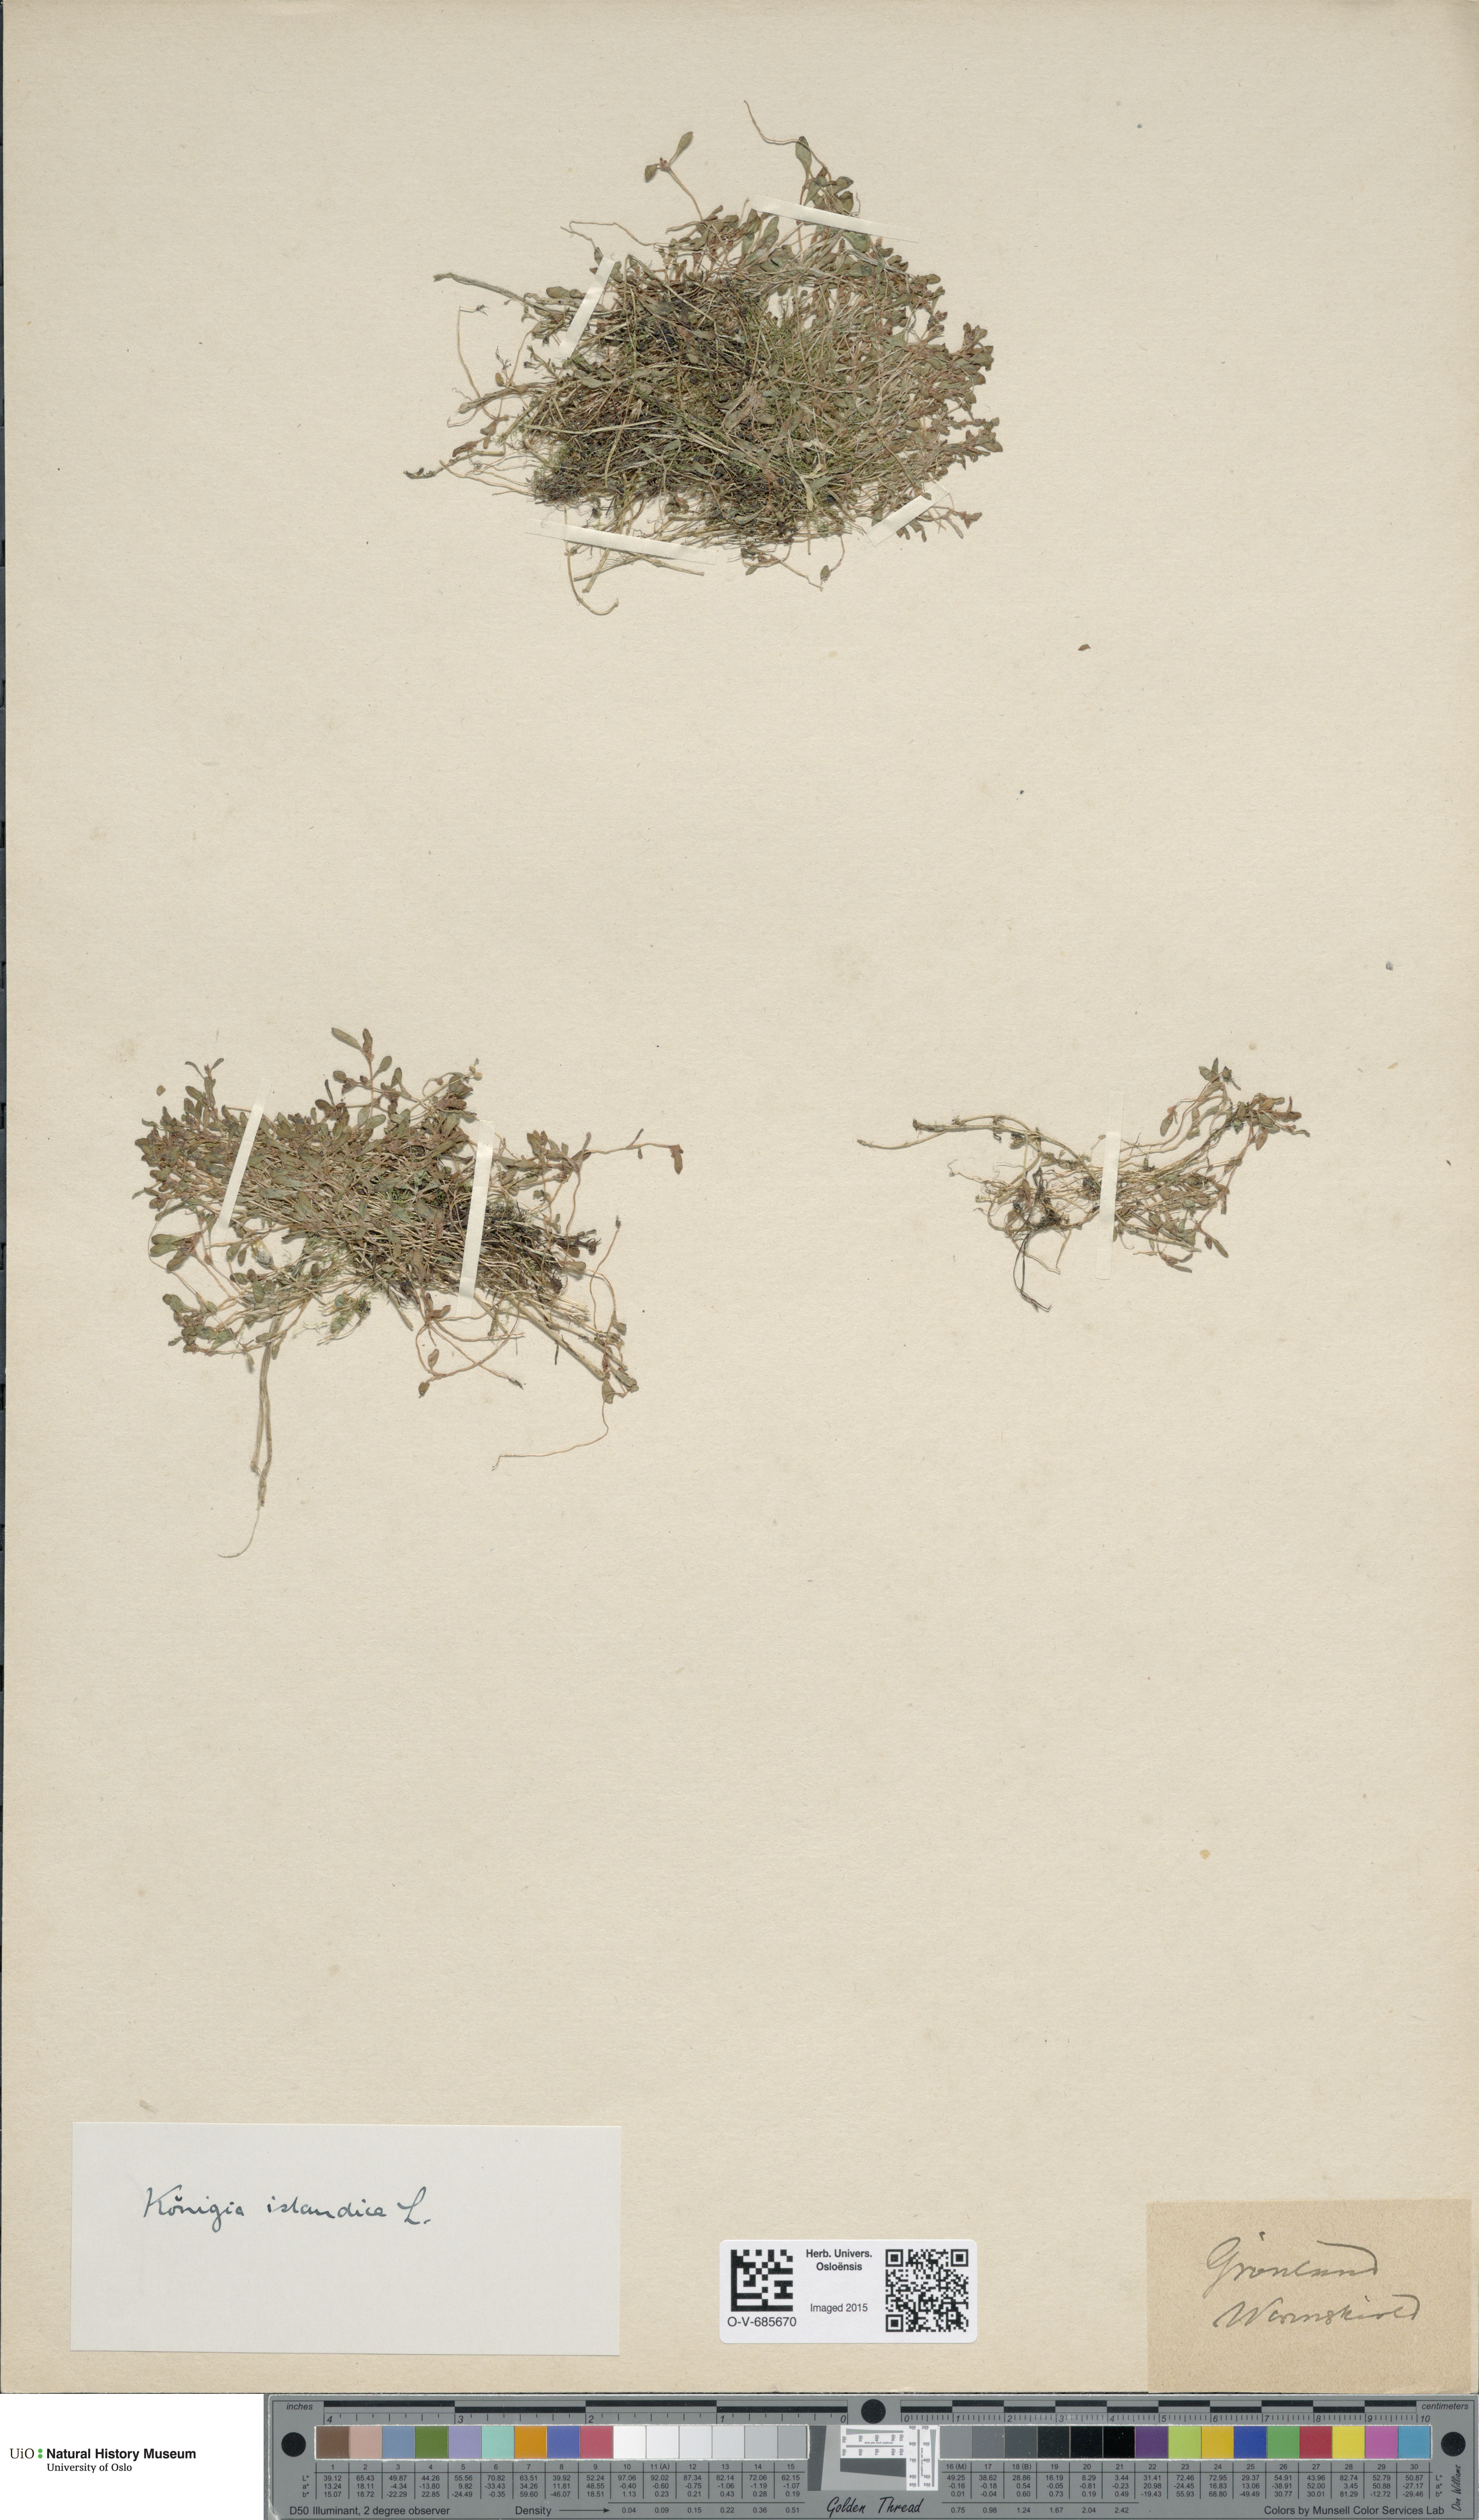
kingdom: Plantae
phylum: Tracheophyta
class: Magnoliopsida
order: Caryophyllales
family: Polygonaceae
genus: Koenigia
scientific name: Koenigia islandica
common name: Iceland-purslane
